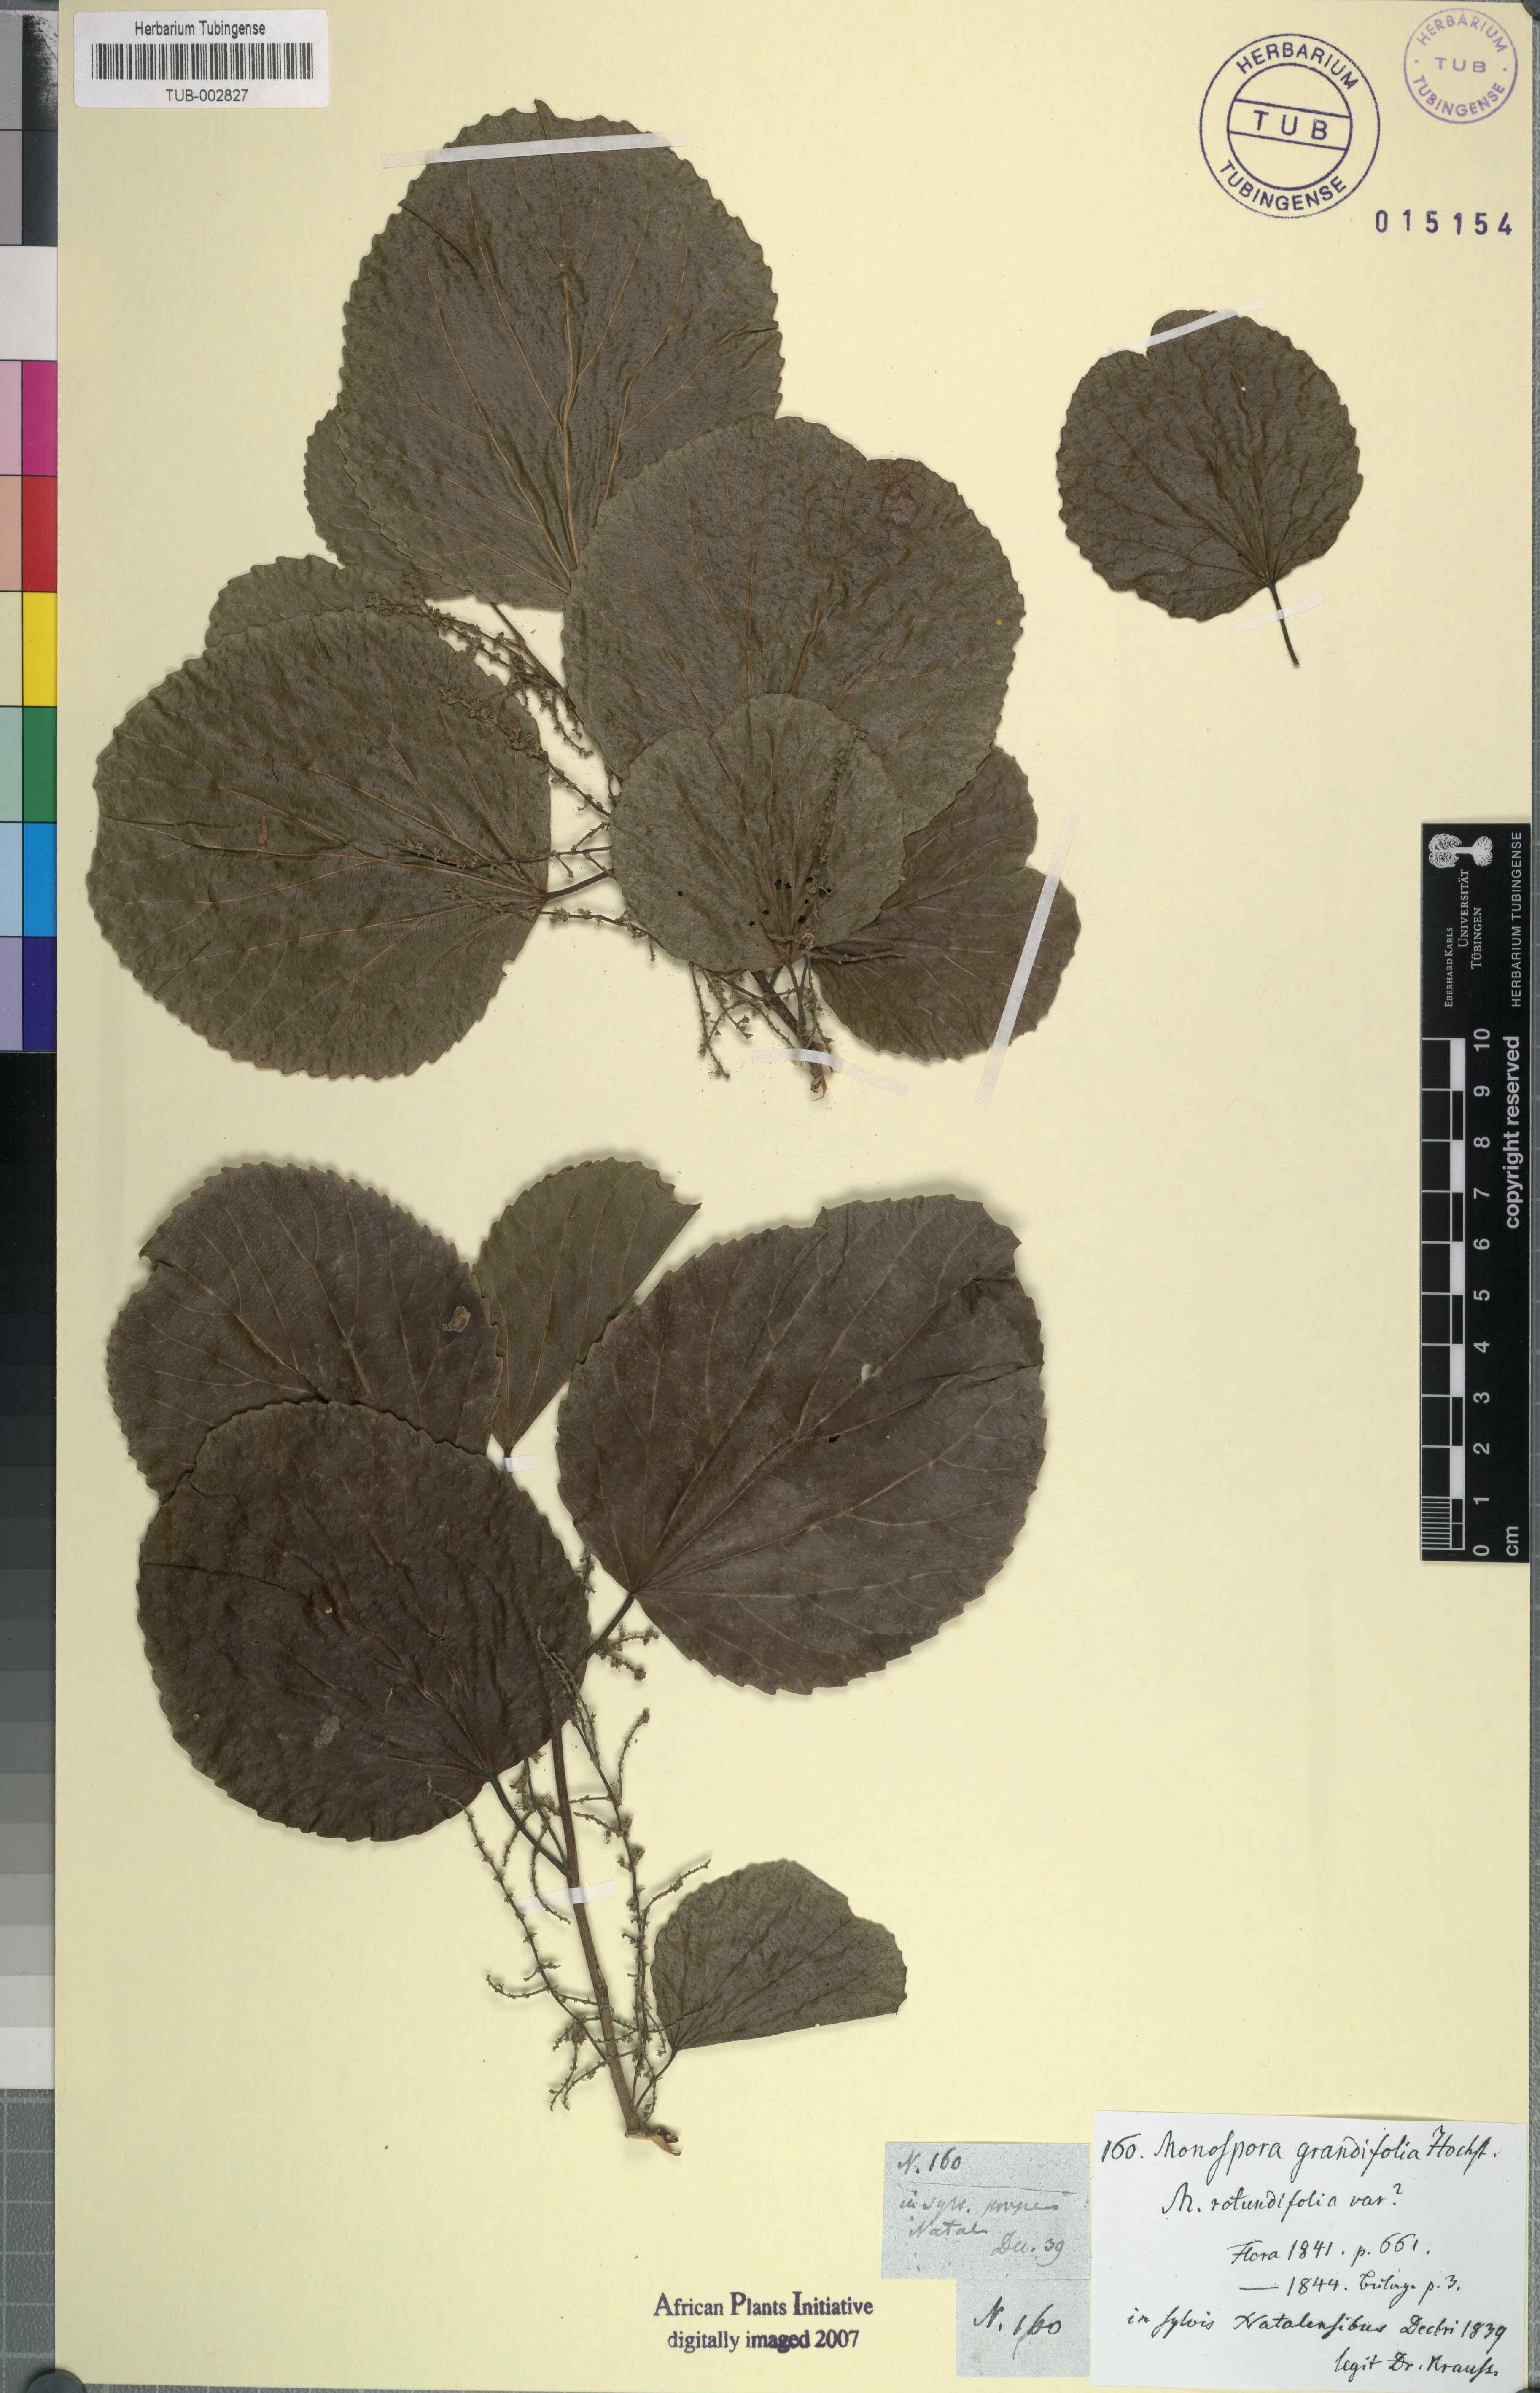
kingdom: Plantae
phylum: Tracheophyta
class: Magnoliopsida
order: Malpighiales
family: Salicaceae
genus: Trimeria
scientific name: Trimeria grandifolia
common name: Wild mulberry
